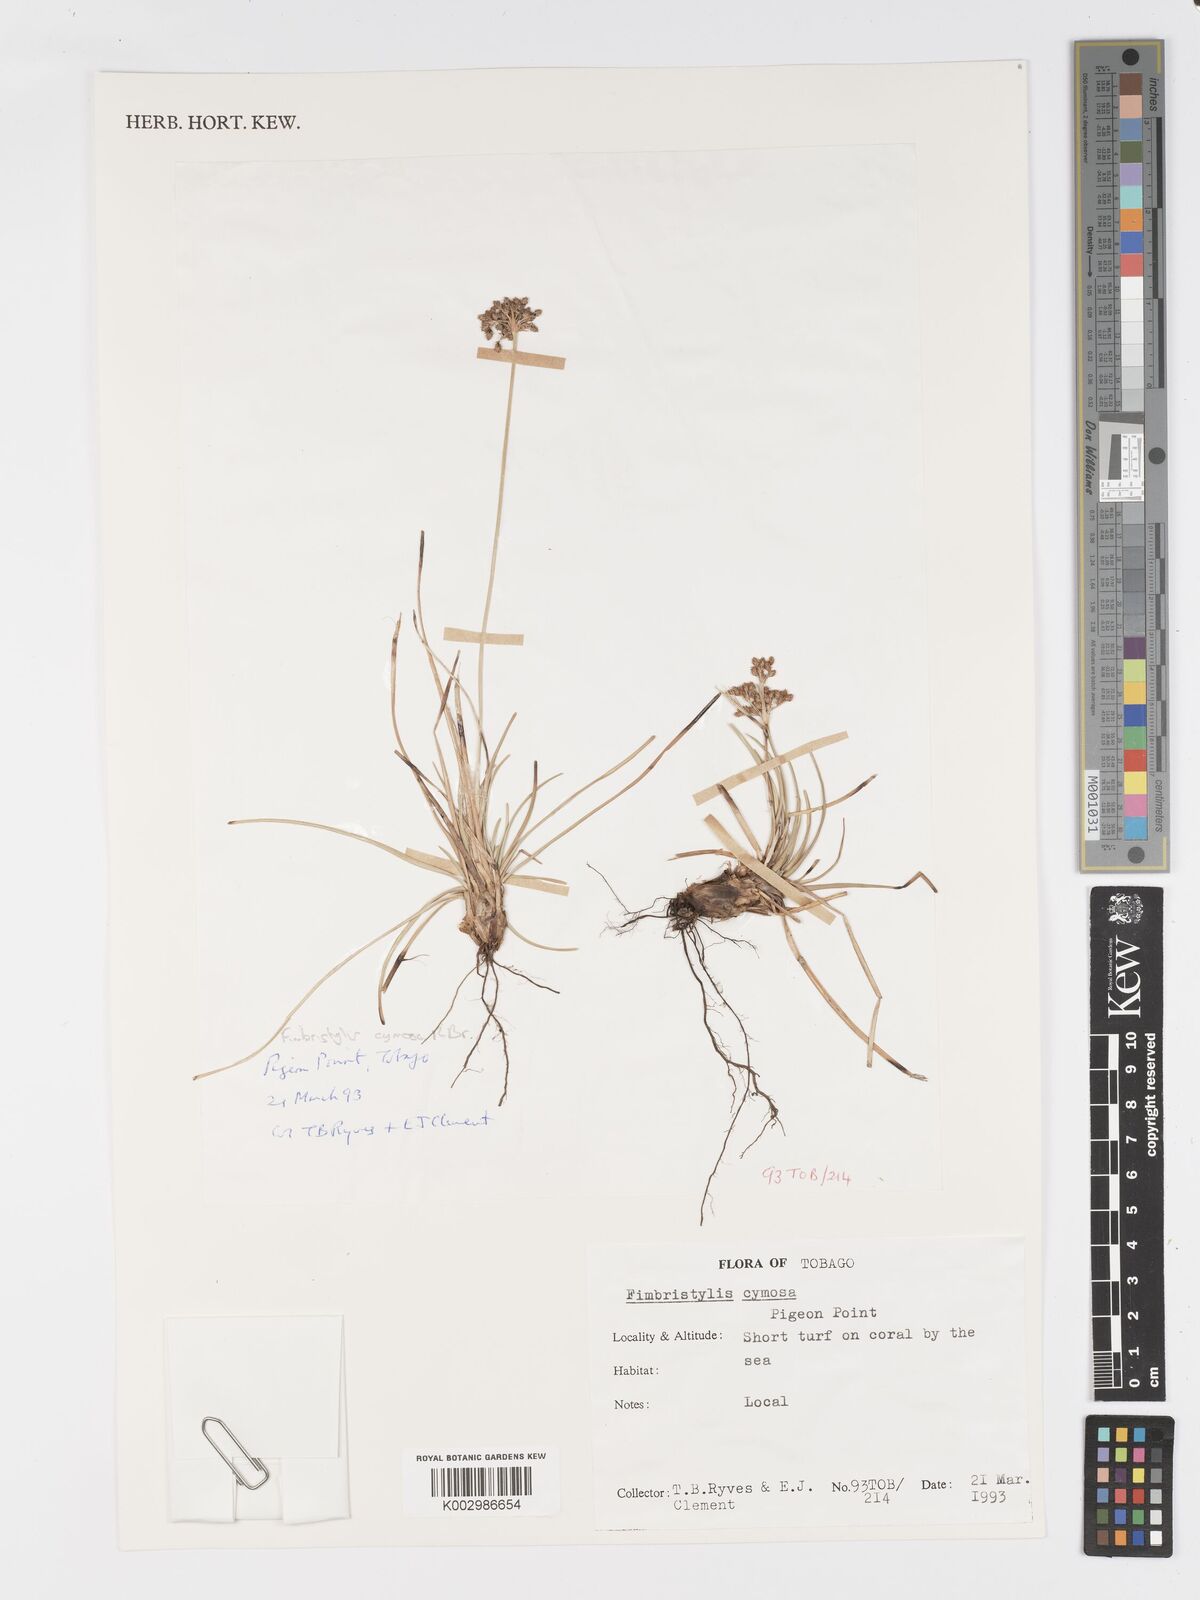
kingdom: Plantae
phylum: Tracheophyta
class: Liliopsida
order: Poales
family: Cyperaceae
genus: Fimbristylis
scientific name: Fimbristylis cymosa
